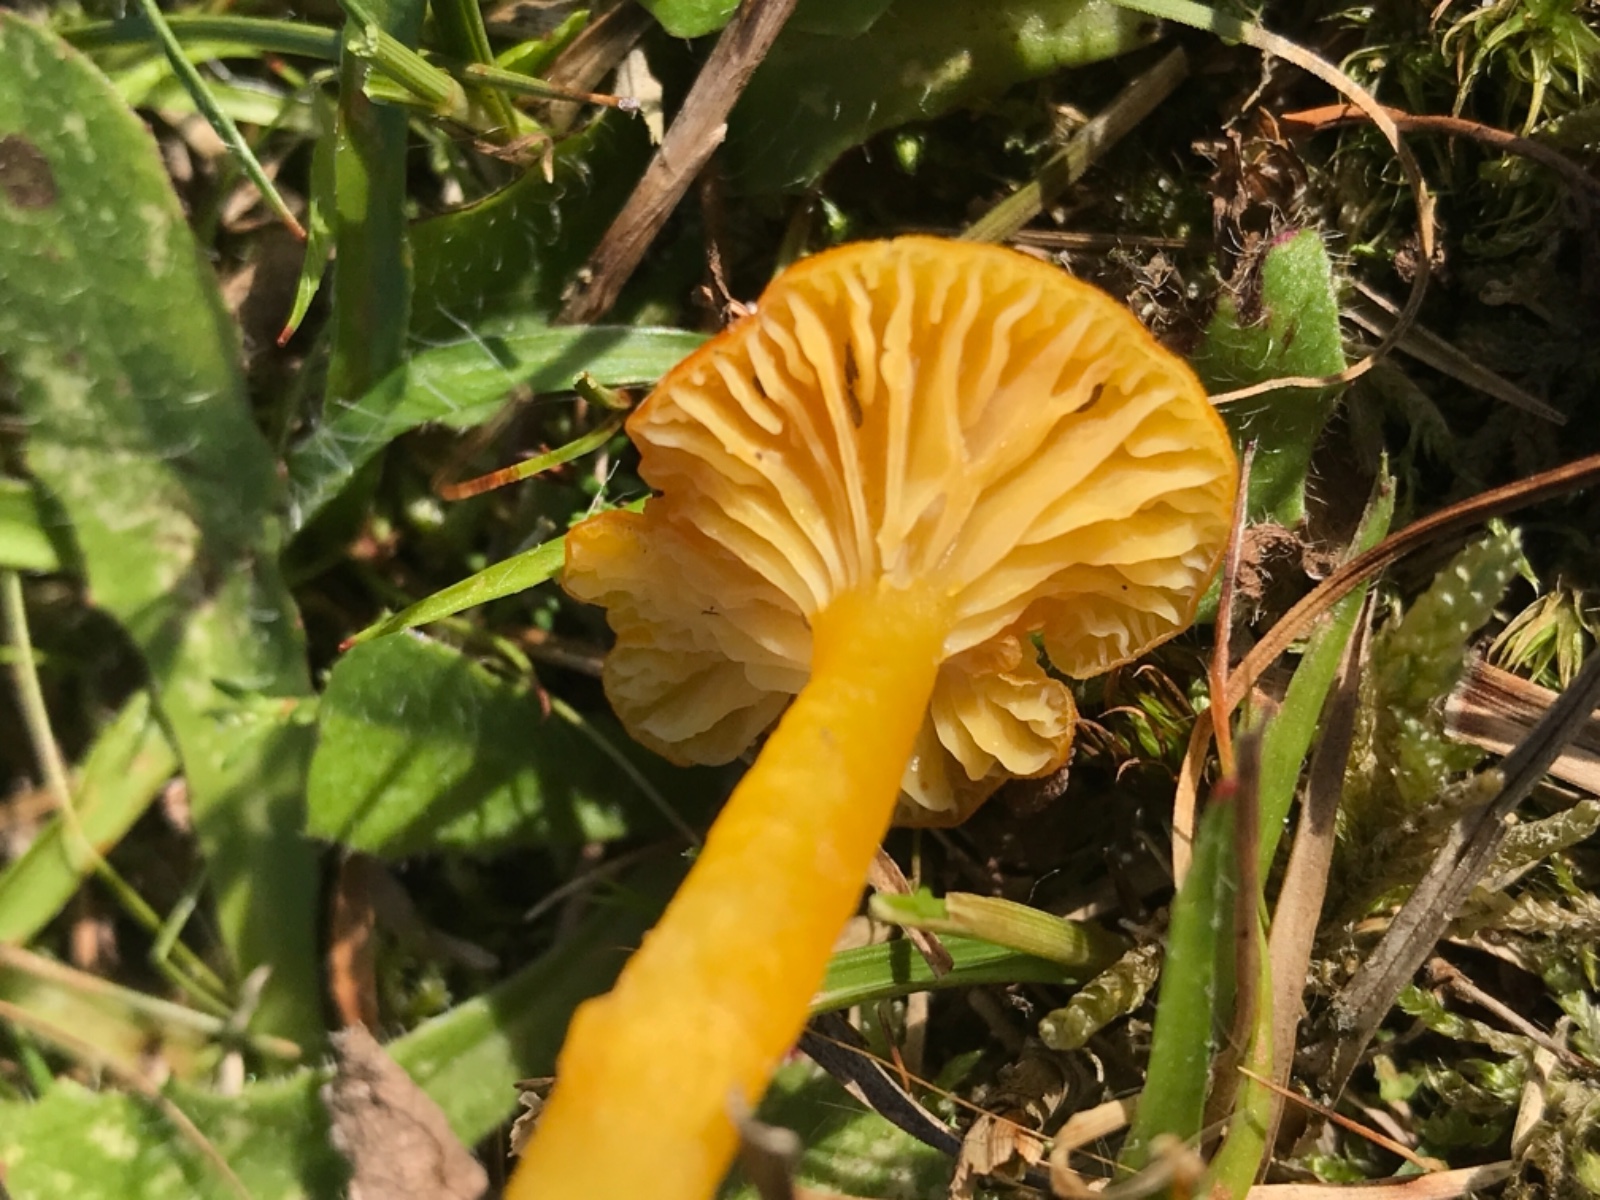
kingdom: Fungi
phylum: Basidiomycota
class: Agaricomycetes
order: Agaricales
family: Hygrophoraceae
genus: Hygrocybe
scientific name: Hygrocybe
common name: vokshat
